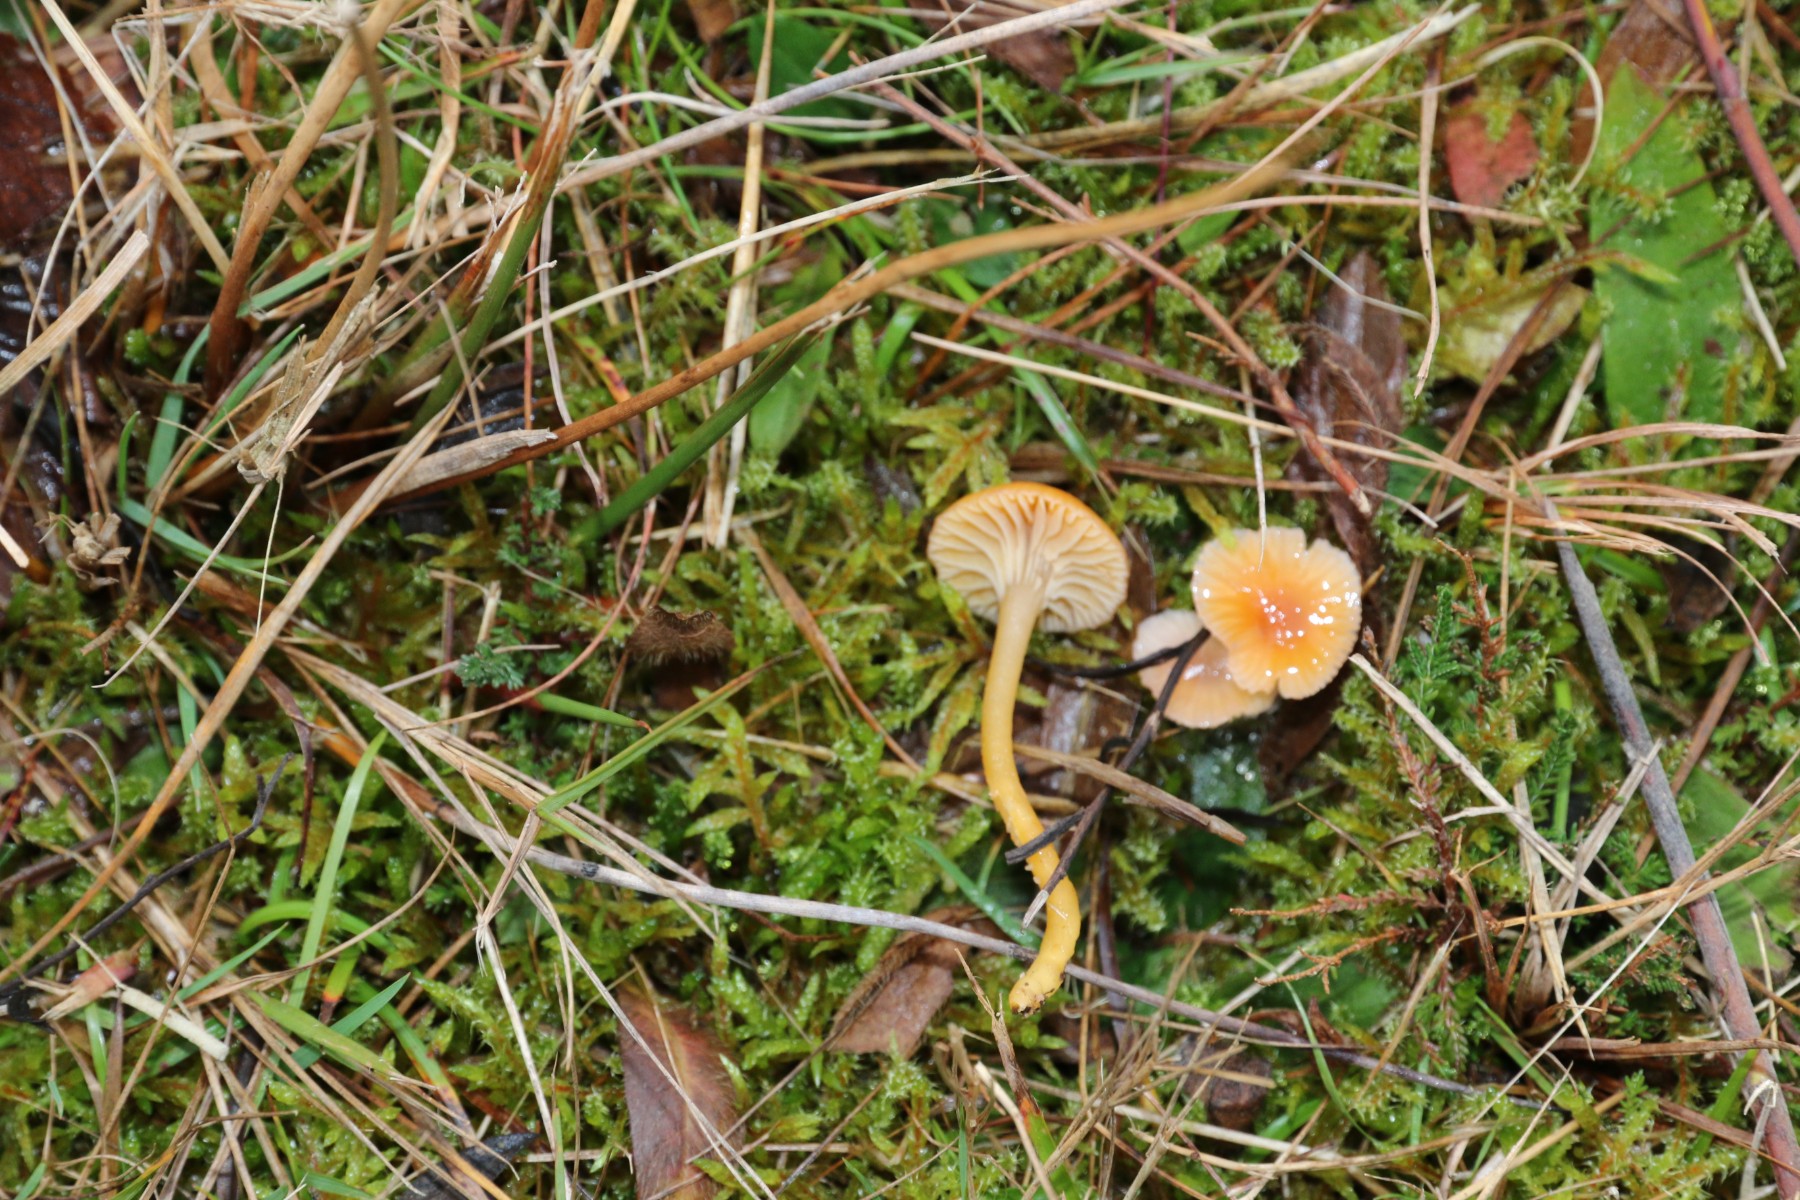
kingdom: Fungi
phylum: Basidiomycota
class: Agaricomycetes
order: Agaricales
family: Hygrophoraceae
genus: Gliophorus
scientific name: Gliophorus laetus
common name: brusk-vokshat
